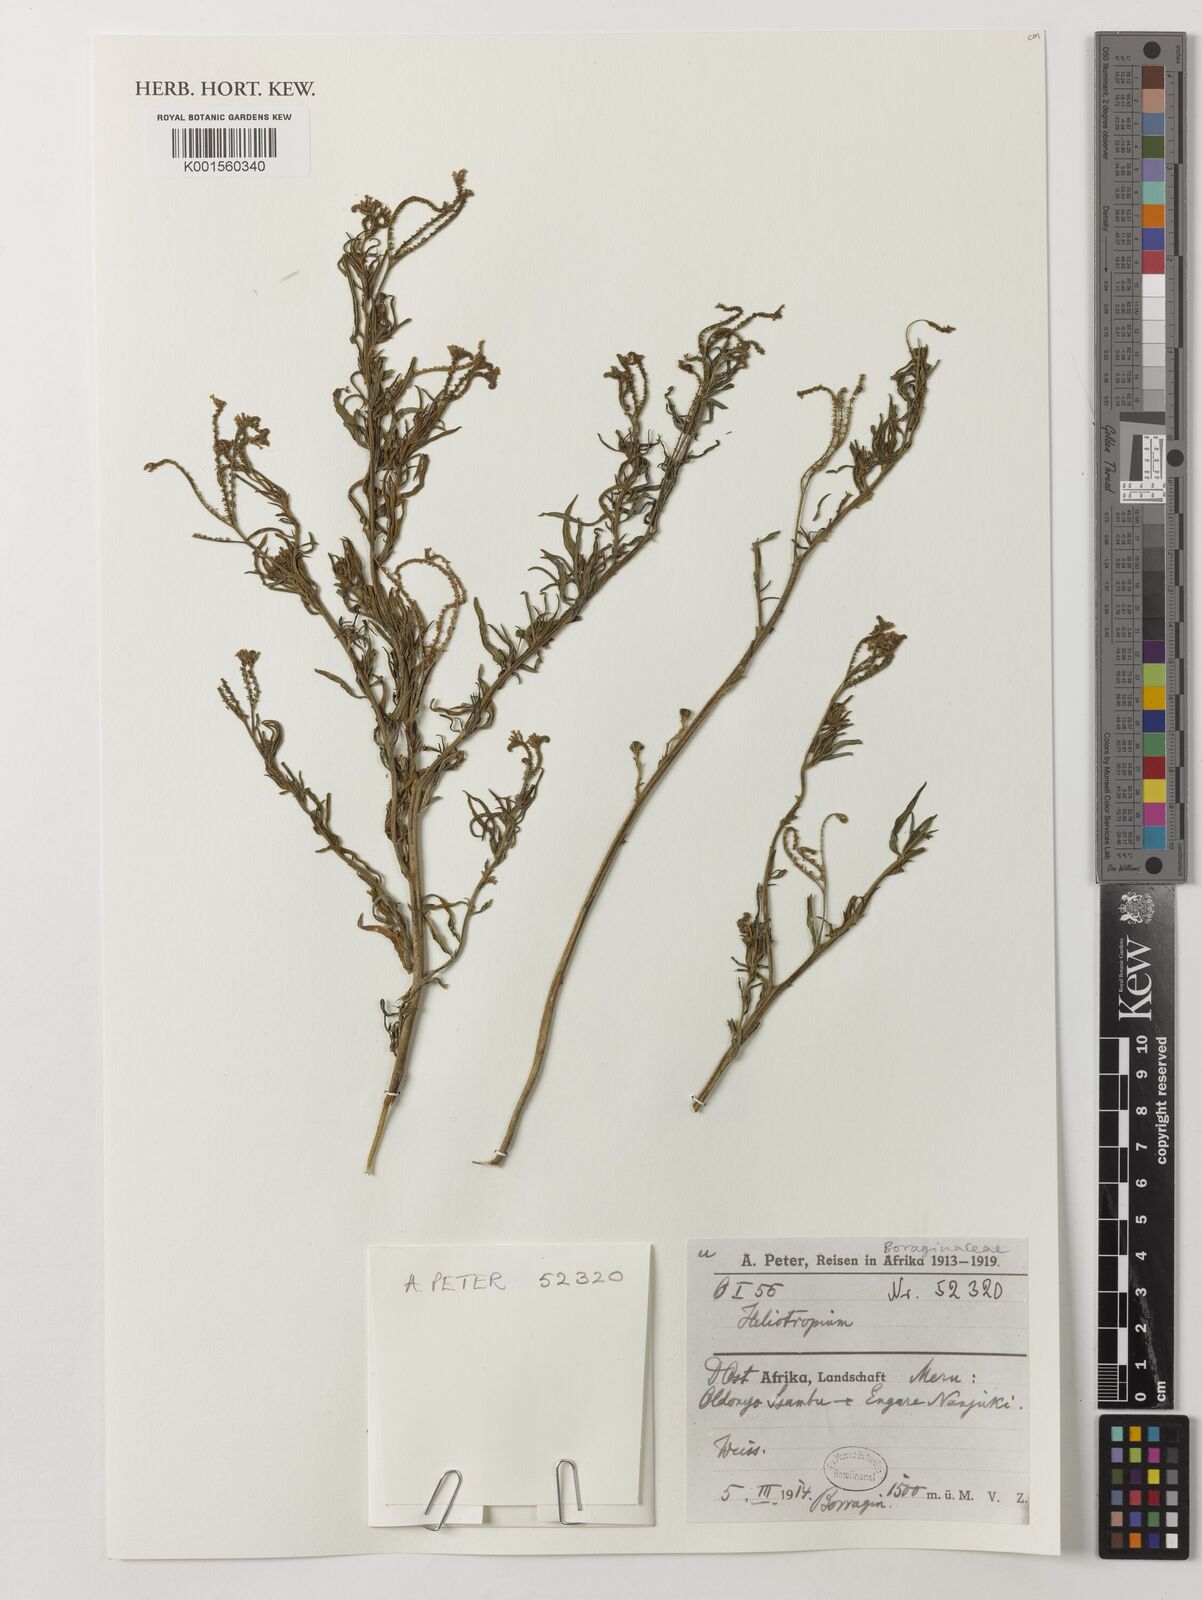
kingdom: Plantae
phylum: Tracheophyta
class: Magnoliopsida
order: Boraginales
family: Heliotropiaceae
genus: Heliotropium
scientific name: Heliotropium
